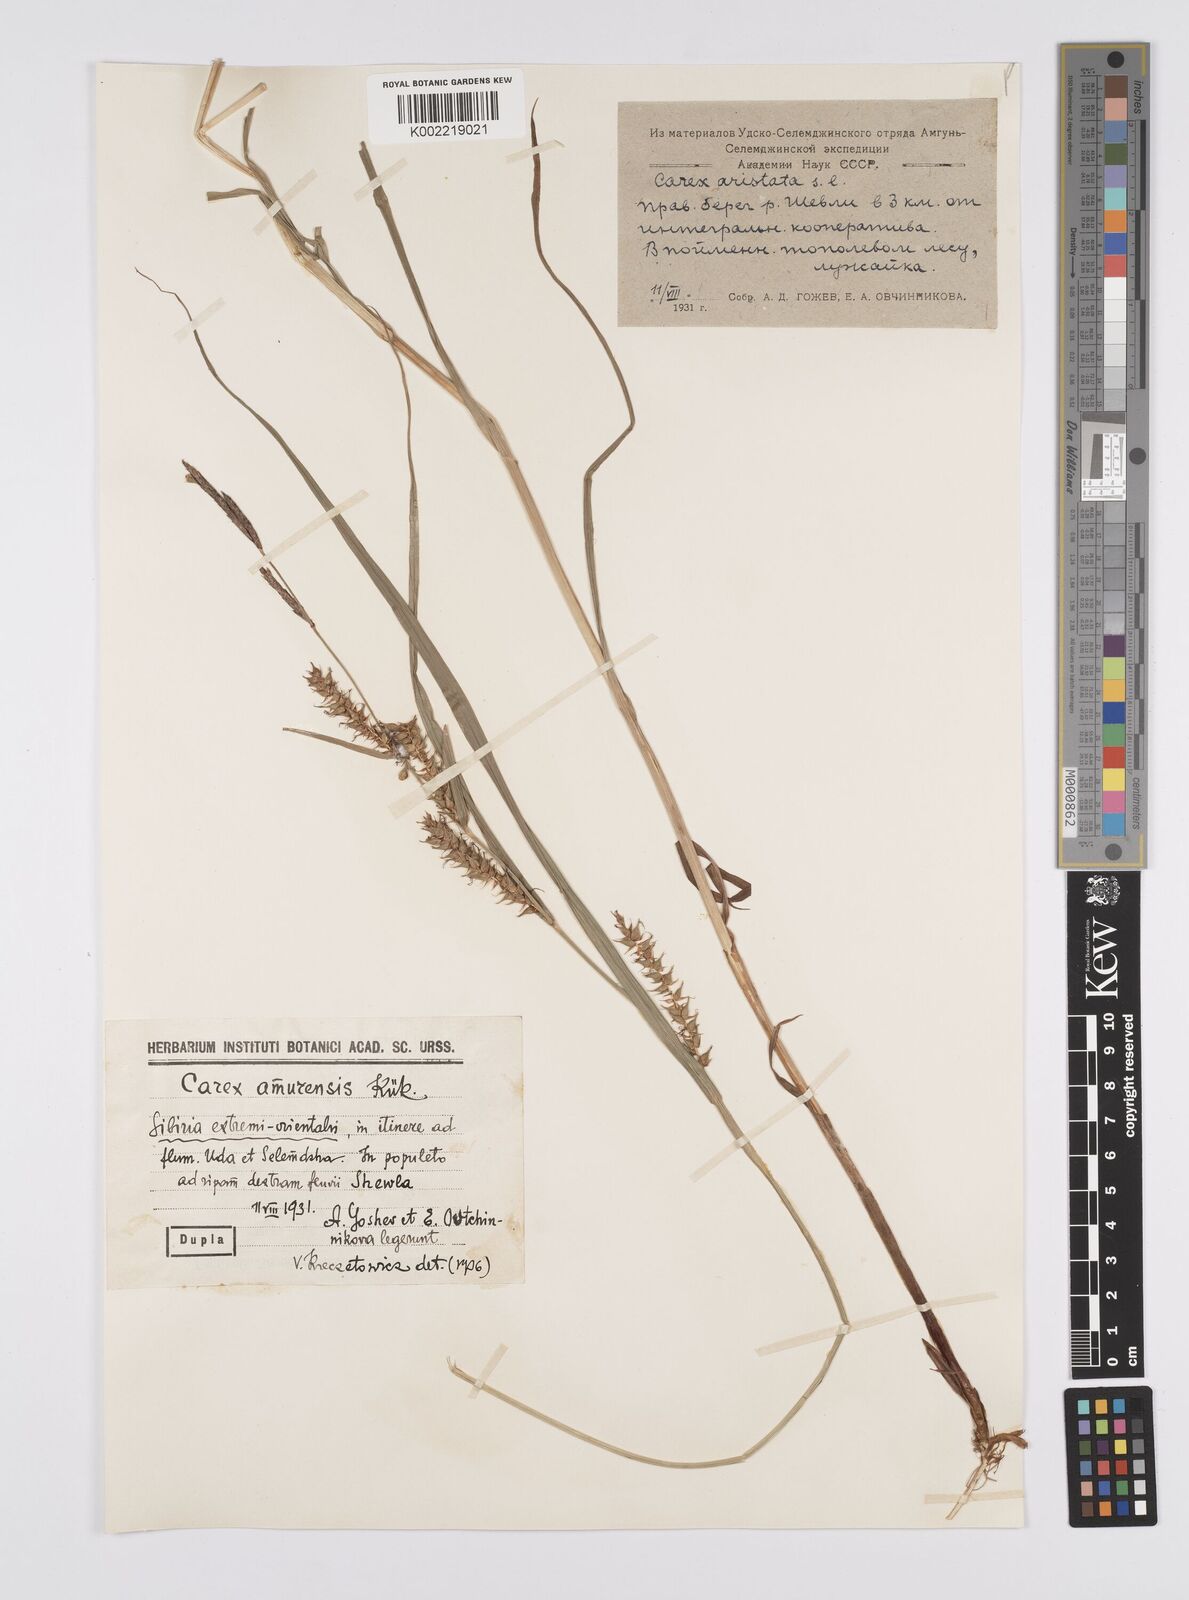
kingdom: Plantae
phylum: Tracheophyta
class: Liliopsida
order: Poales
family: Cyperaceae
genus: Carex
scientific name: Carex drymophila
